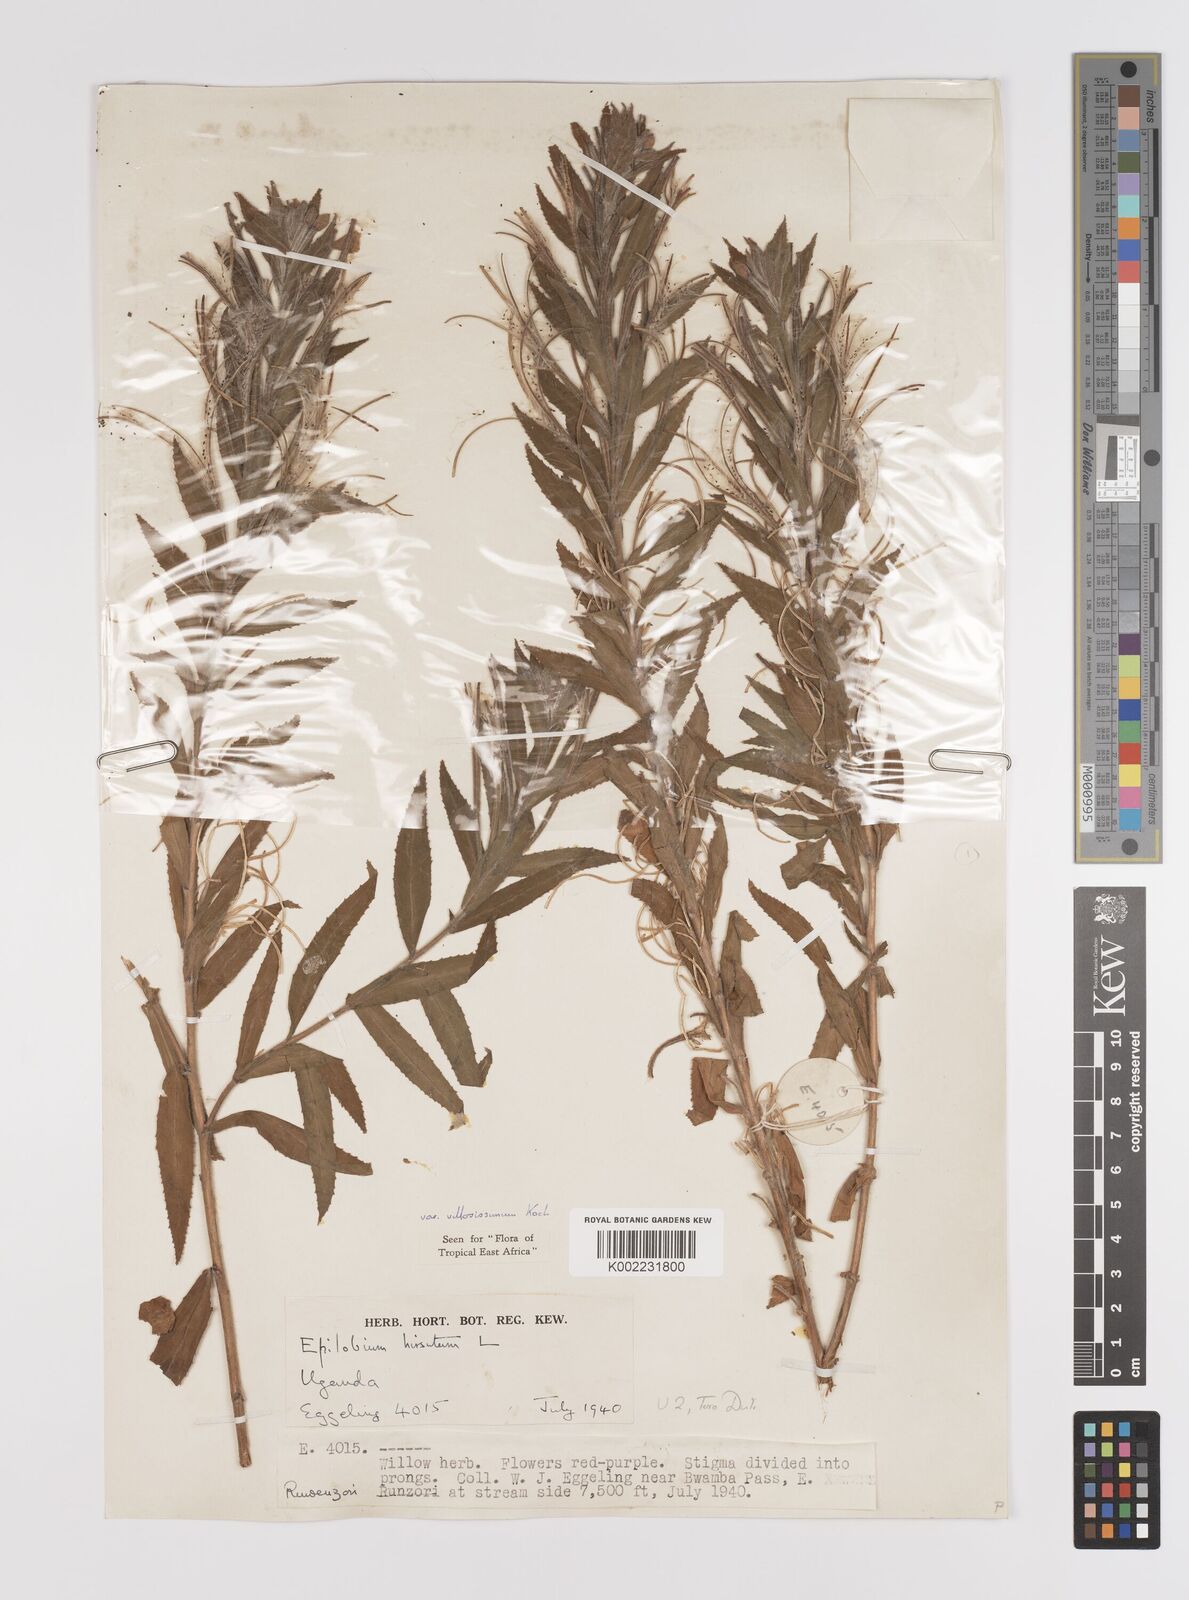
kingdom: Plantae
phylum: Tracheophyta
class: Magnoliopsida
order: Myrtales
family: Onagraceae
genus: Epilobium
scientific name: Epilobium hirsutum
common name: Great willowherb
